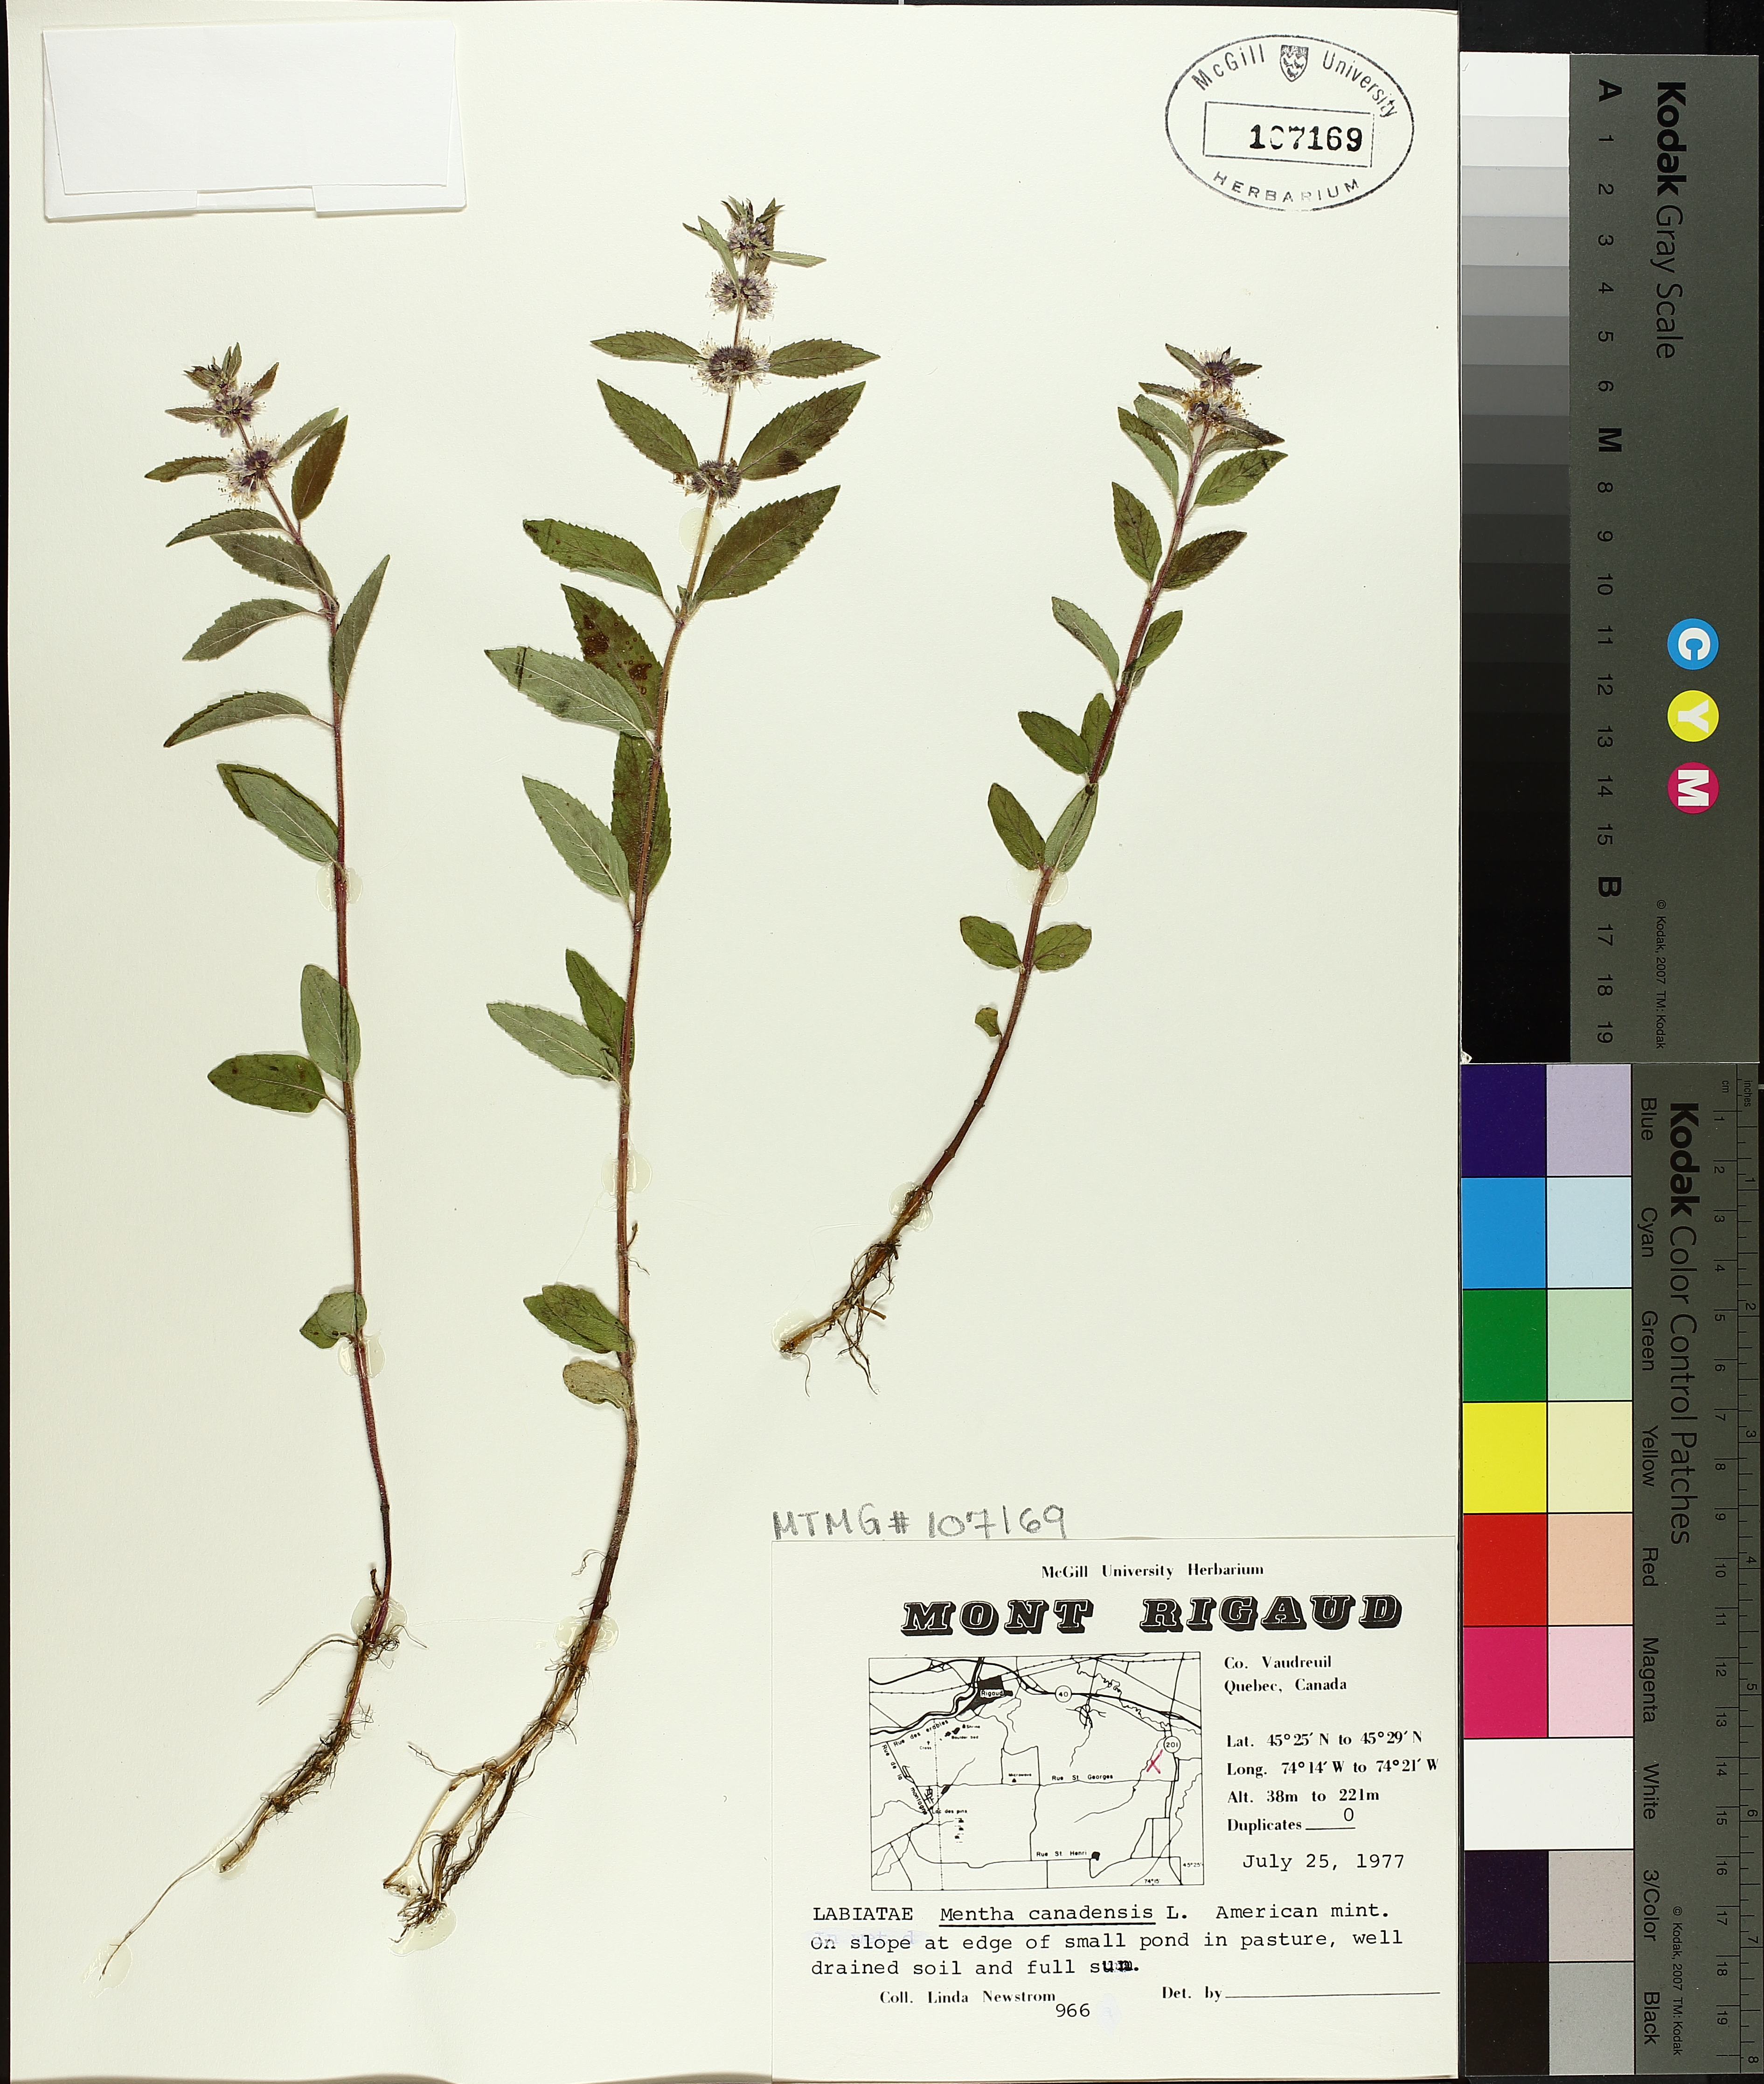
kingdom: Plantae
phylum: Tracheophyta
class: Magnoliopsida
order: Lamiales
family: Lamiaceae
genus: Mentha
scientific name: Mentha canadensis
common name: American corn mint
